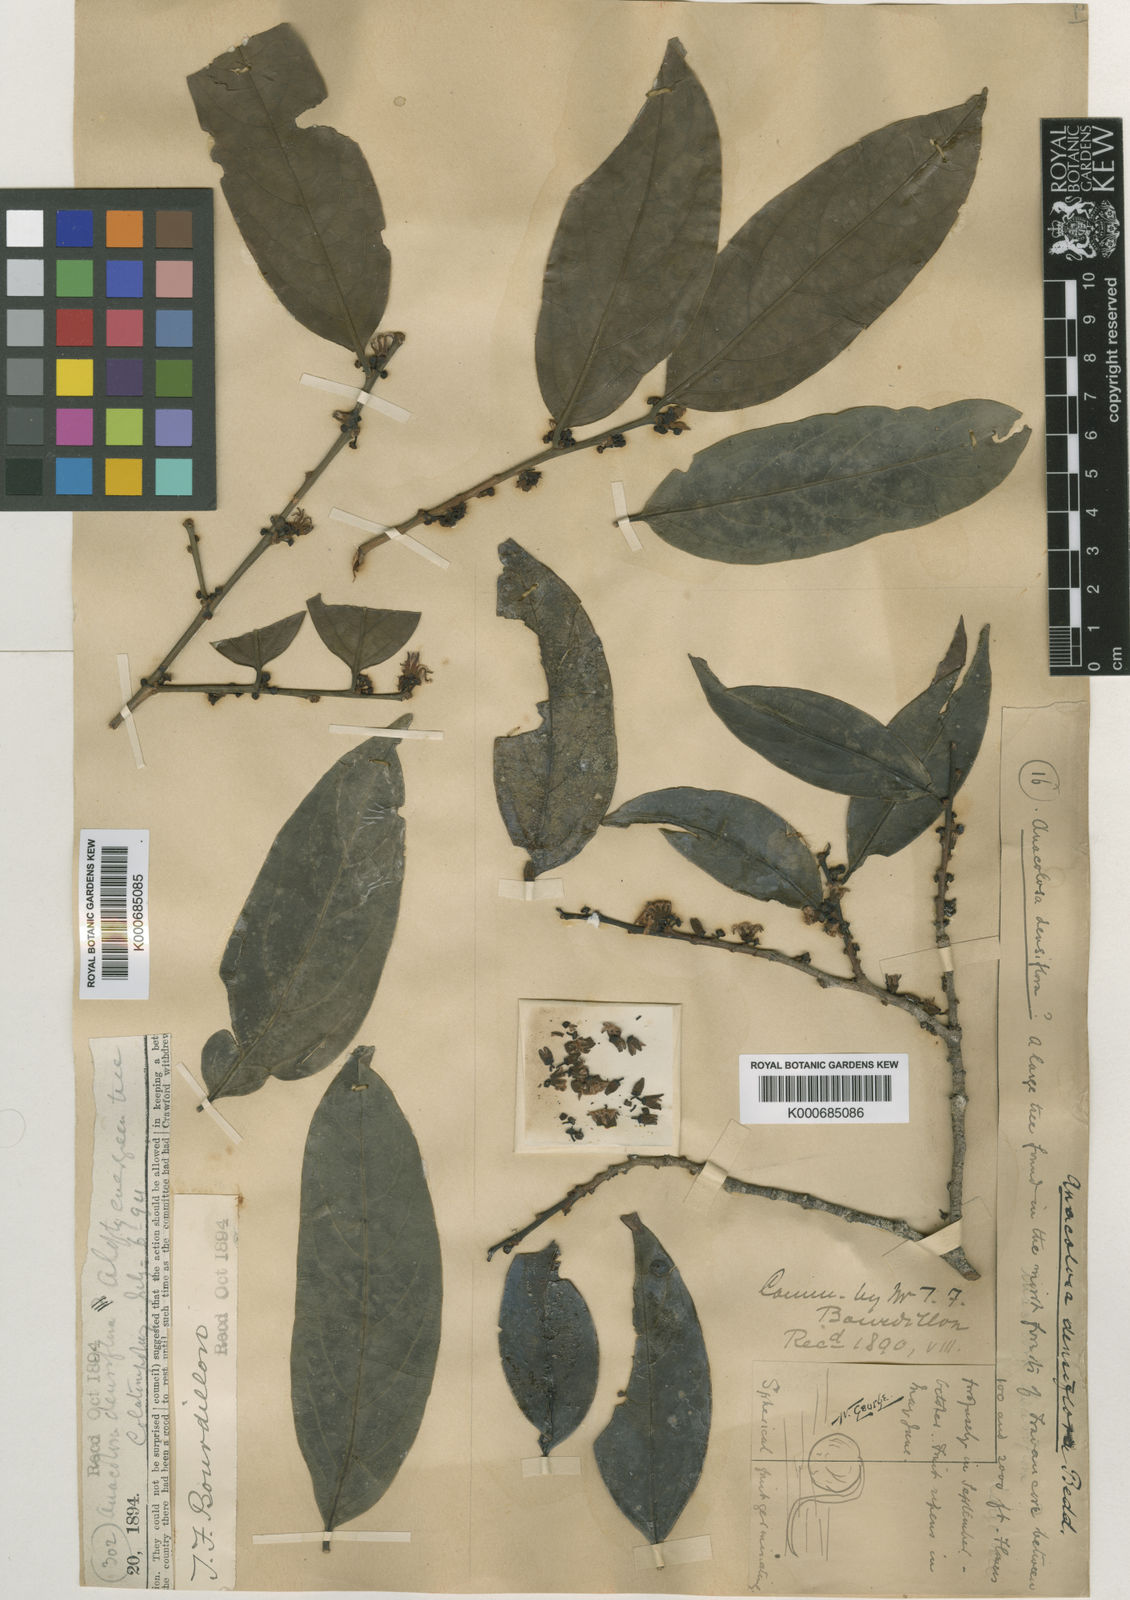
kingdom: Plantae
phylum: Tracheophyta
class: Magnoliopsida
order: Santalales
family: Aptandraceae
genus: Anacolosa
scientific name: Anacolosa densiflora
